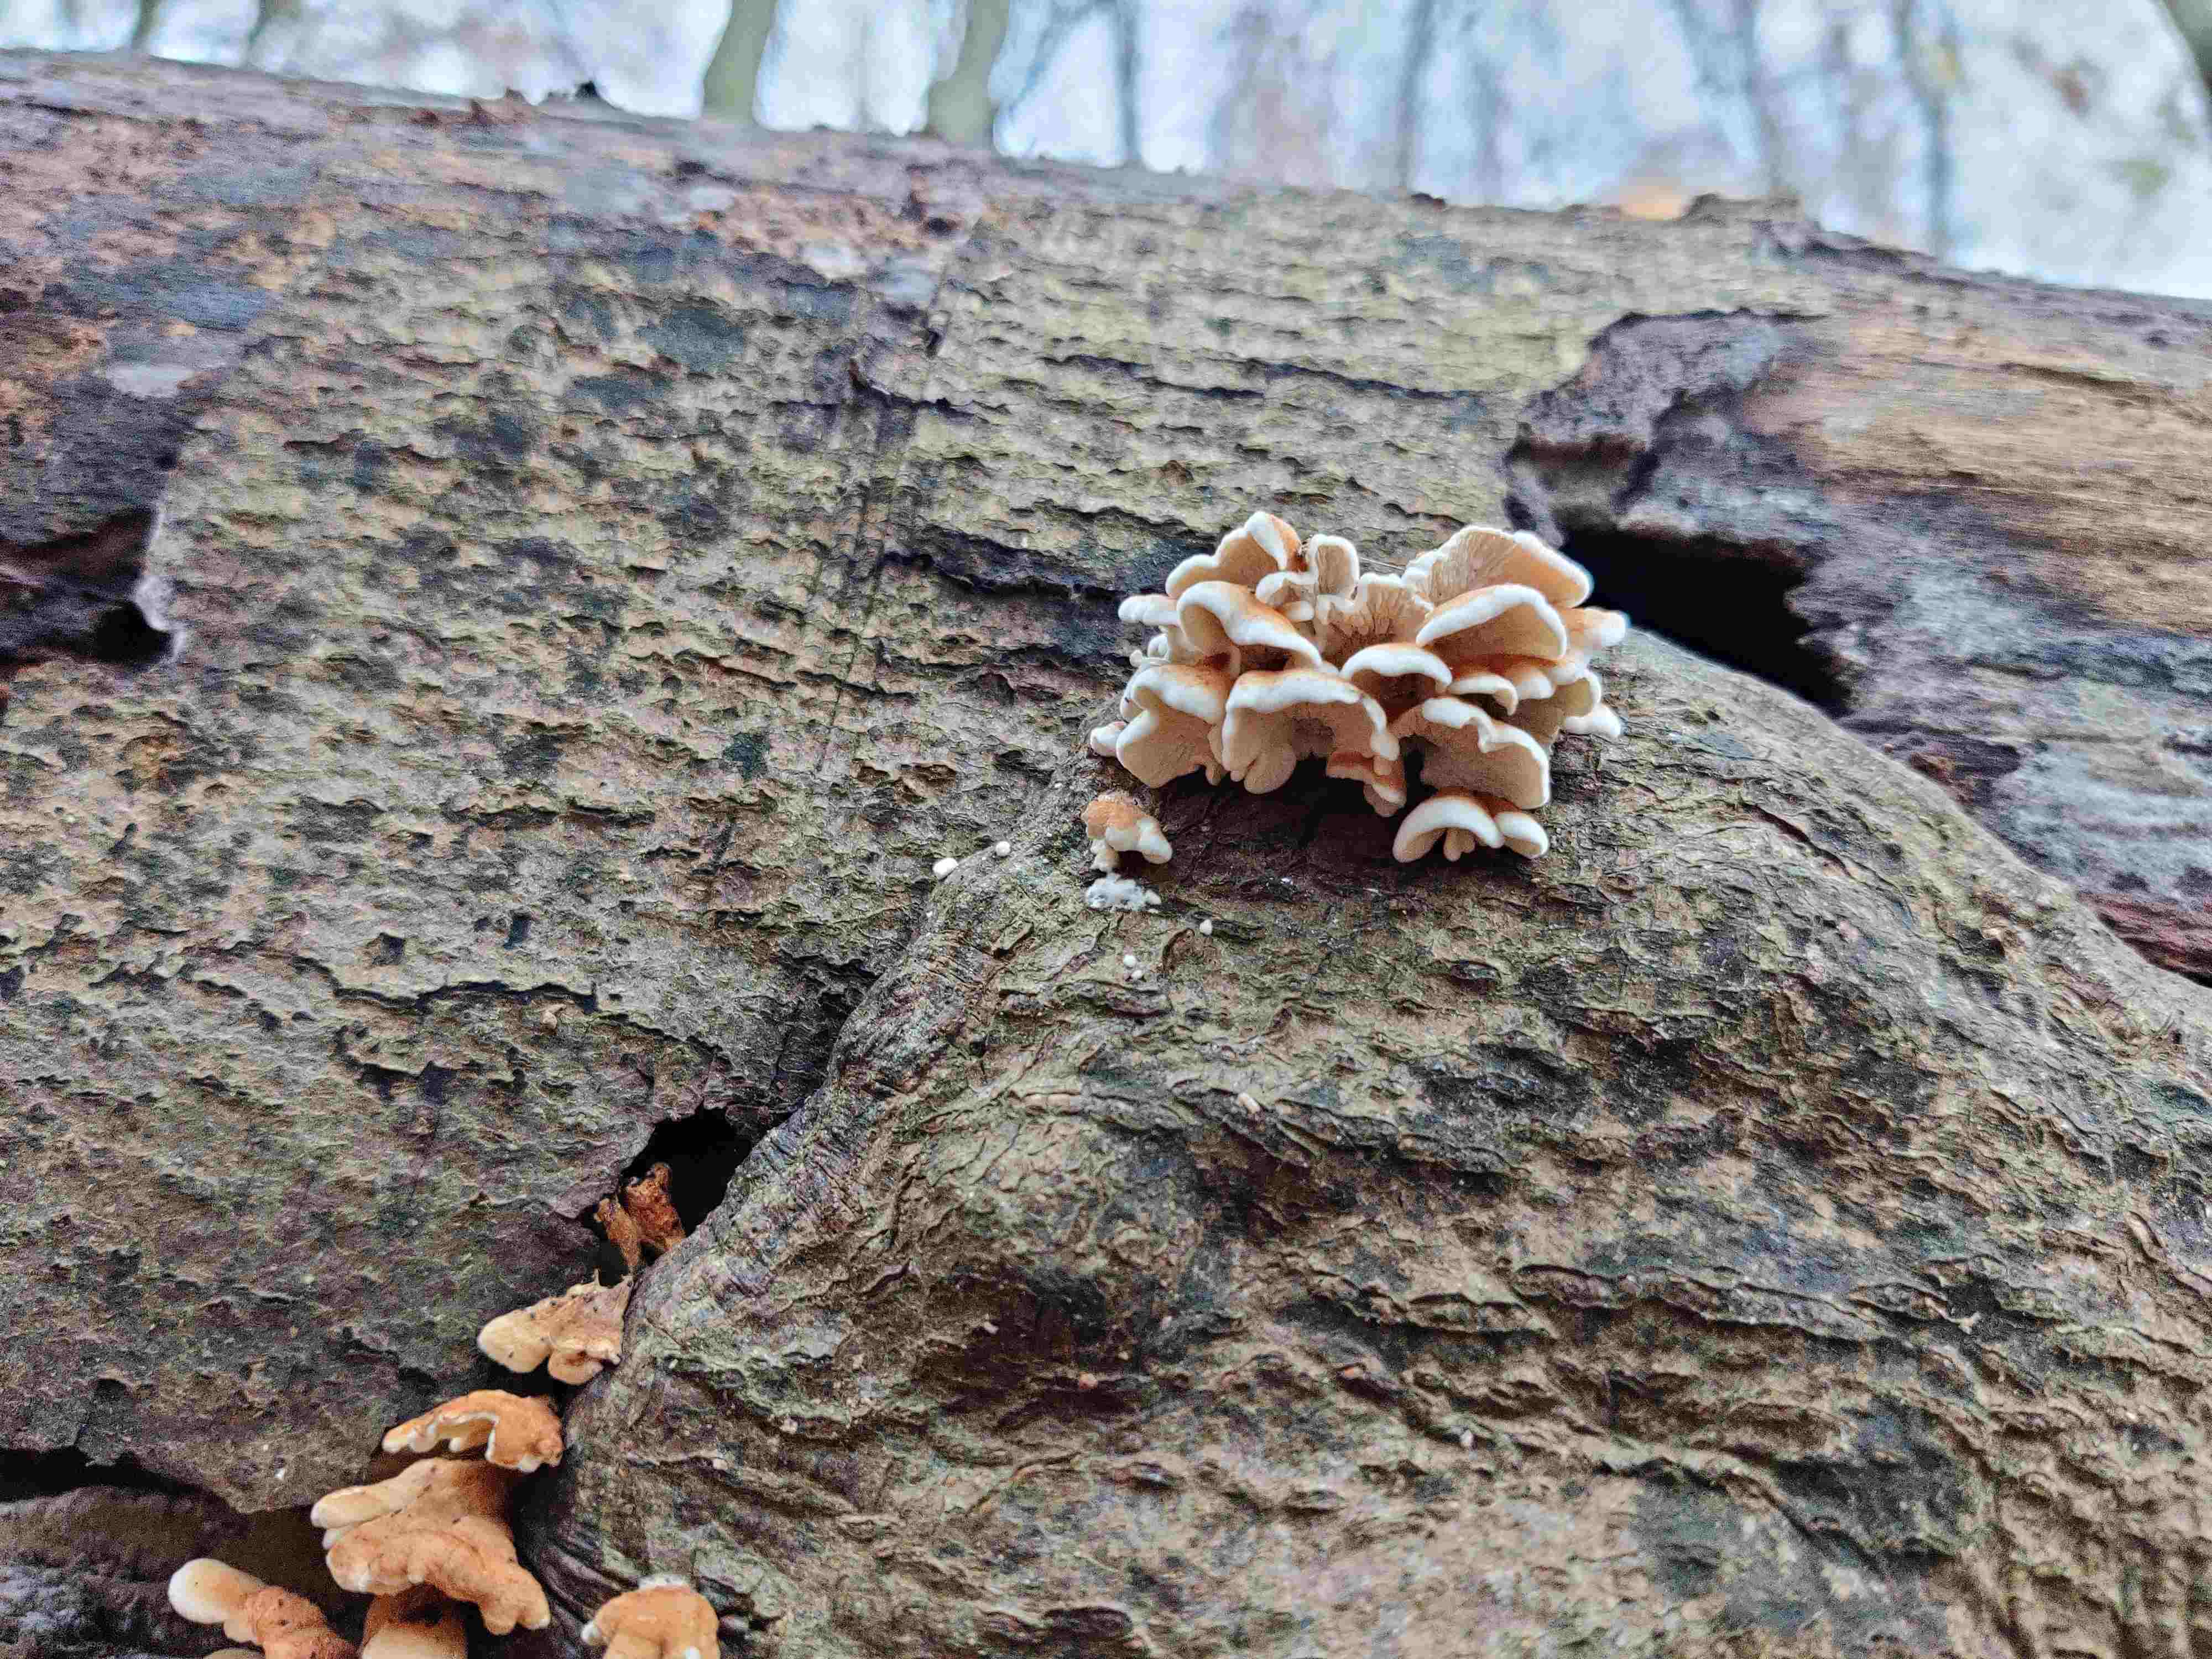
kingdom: Fungi
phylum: Basidiomycota
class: Agaricomycetes
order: Amylocorticiales
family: Amylocorticiaceae
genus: Plicaturopsis
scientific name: Plicaturopsis crispa
